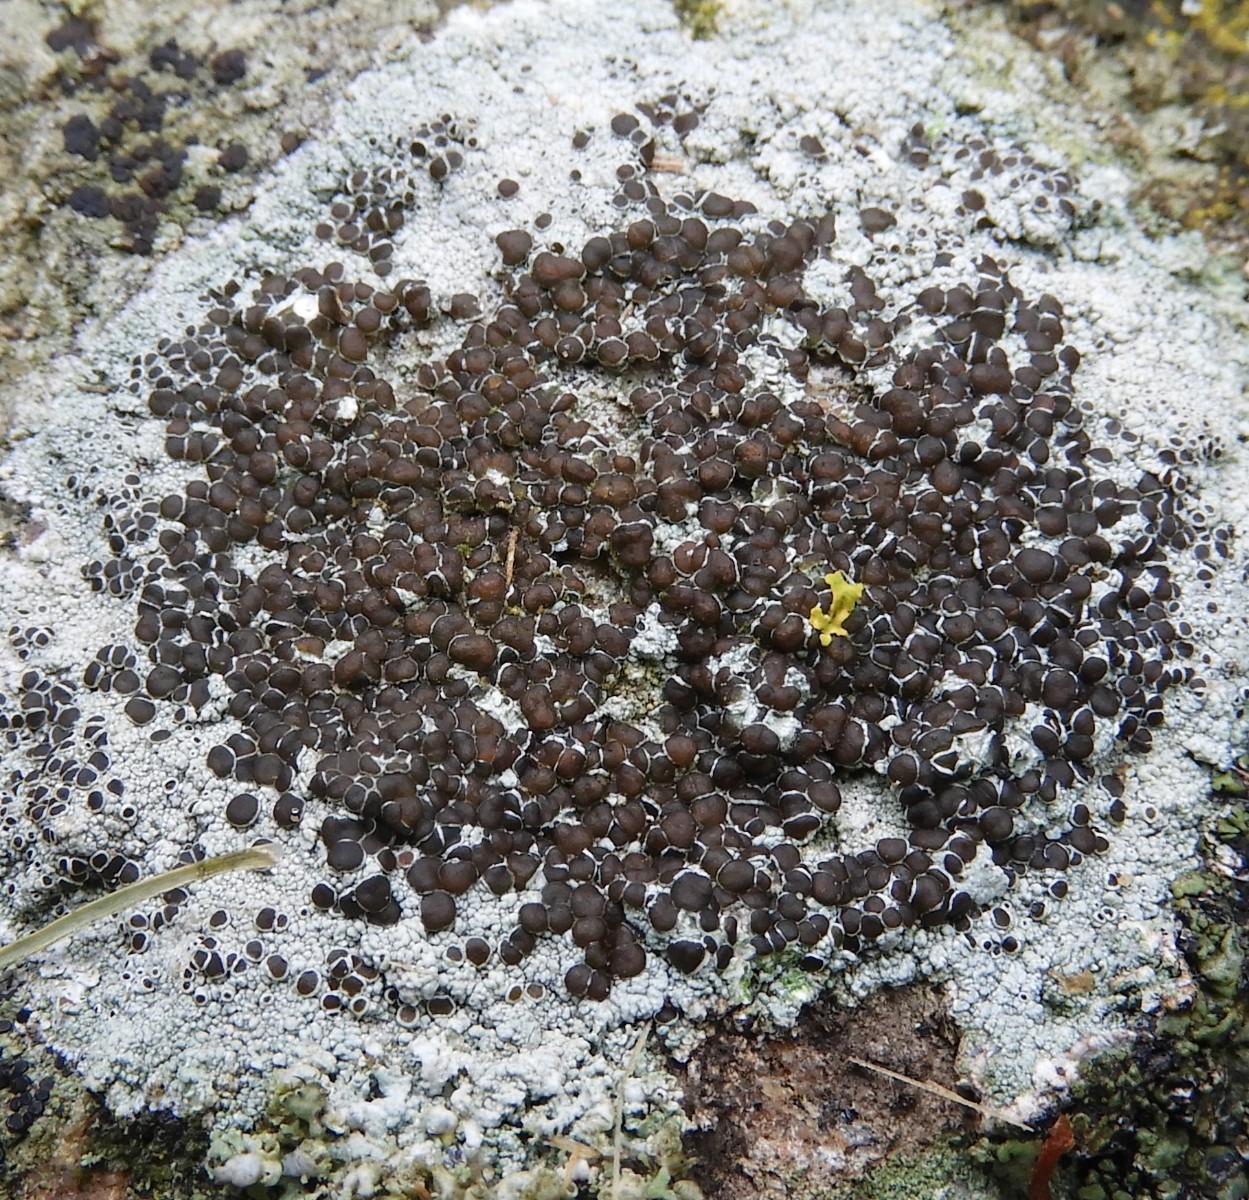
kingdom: Fungi
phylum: Ascomycota
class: Lecanoromycetes
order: Lecanorales
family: Lecanoraceae
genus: Lecanora
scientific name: Lecanora campestris
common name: mur-kantskivelav
